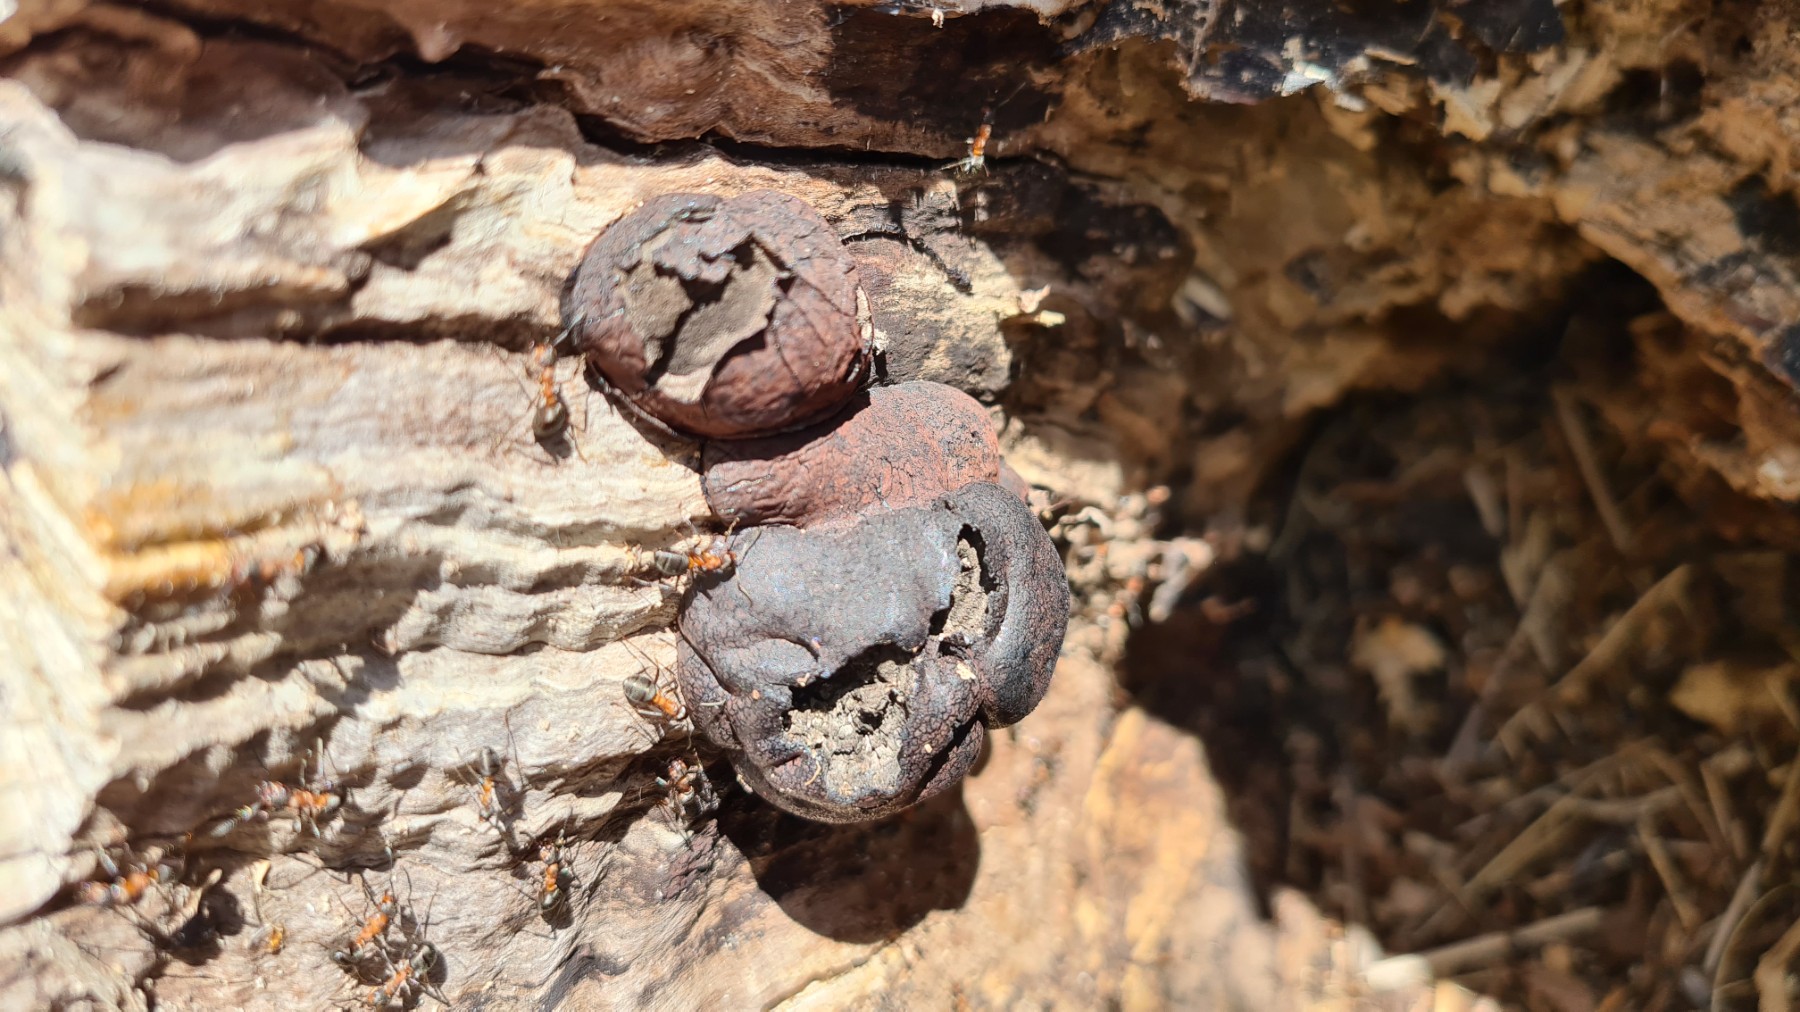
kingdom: Fungi
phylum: Ascomycota
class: Sordariomycetes
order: Xylariales
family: Hypoxylaceae
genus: Daldinia
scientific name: Daldinia concentrica
